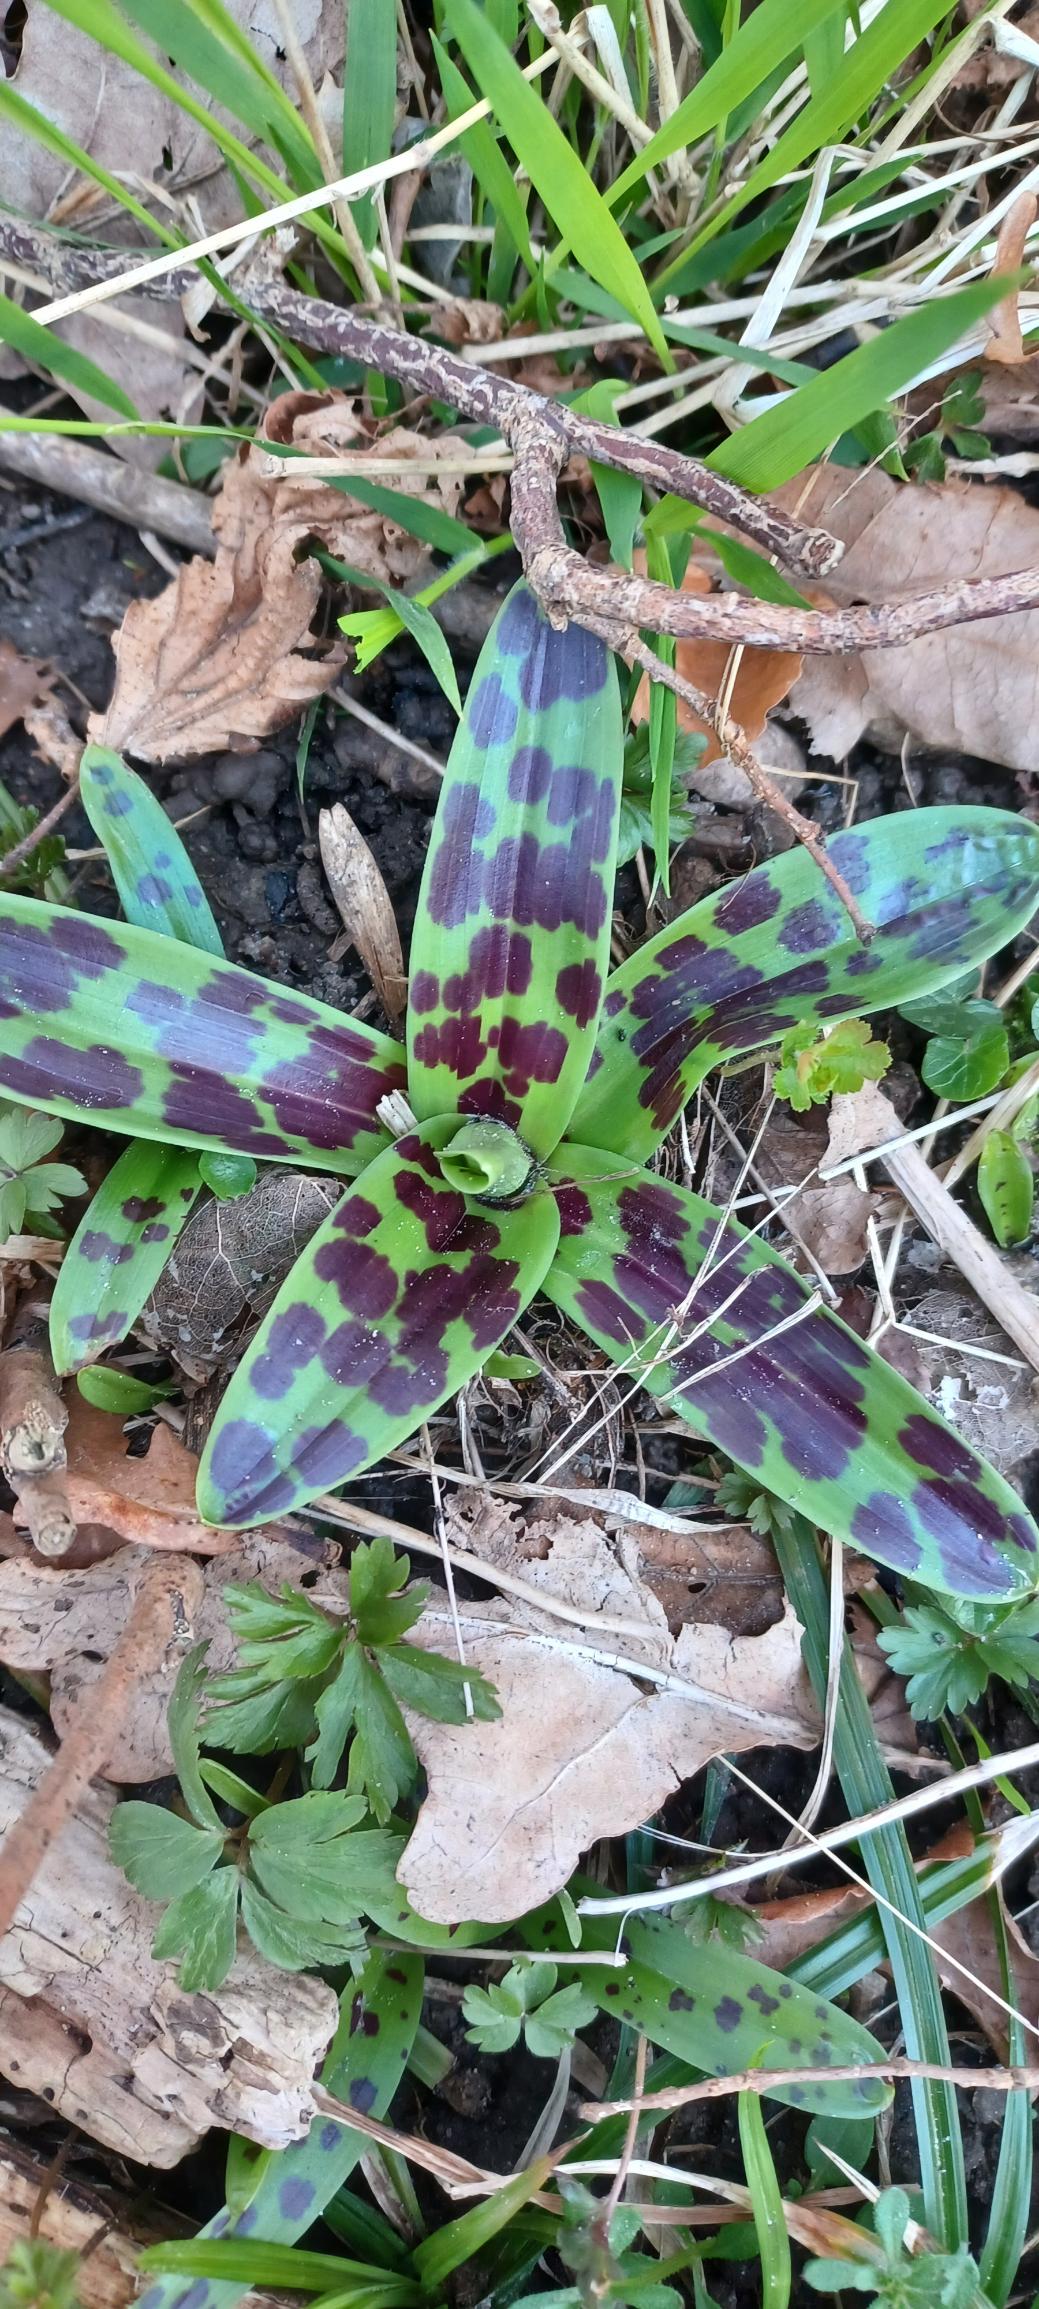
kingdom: Plantae
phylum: Tracheophyta
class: Liliopsida
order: Asparagales
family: Orchidaceae
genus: Orchis
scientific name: Orchis mascula
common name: Tyndakset gøgeurt
